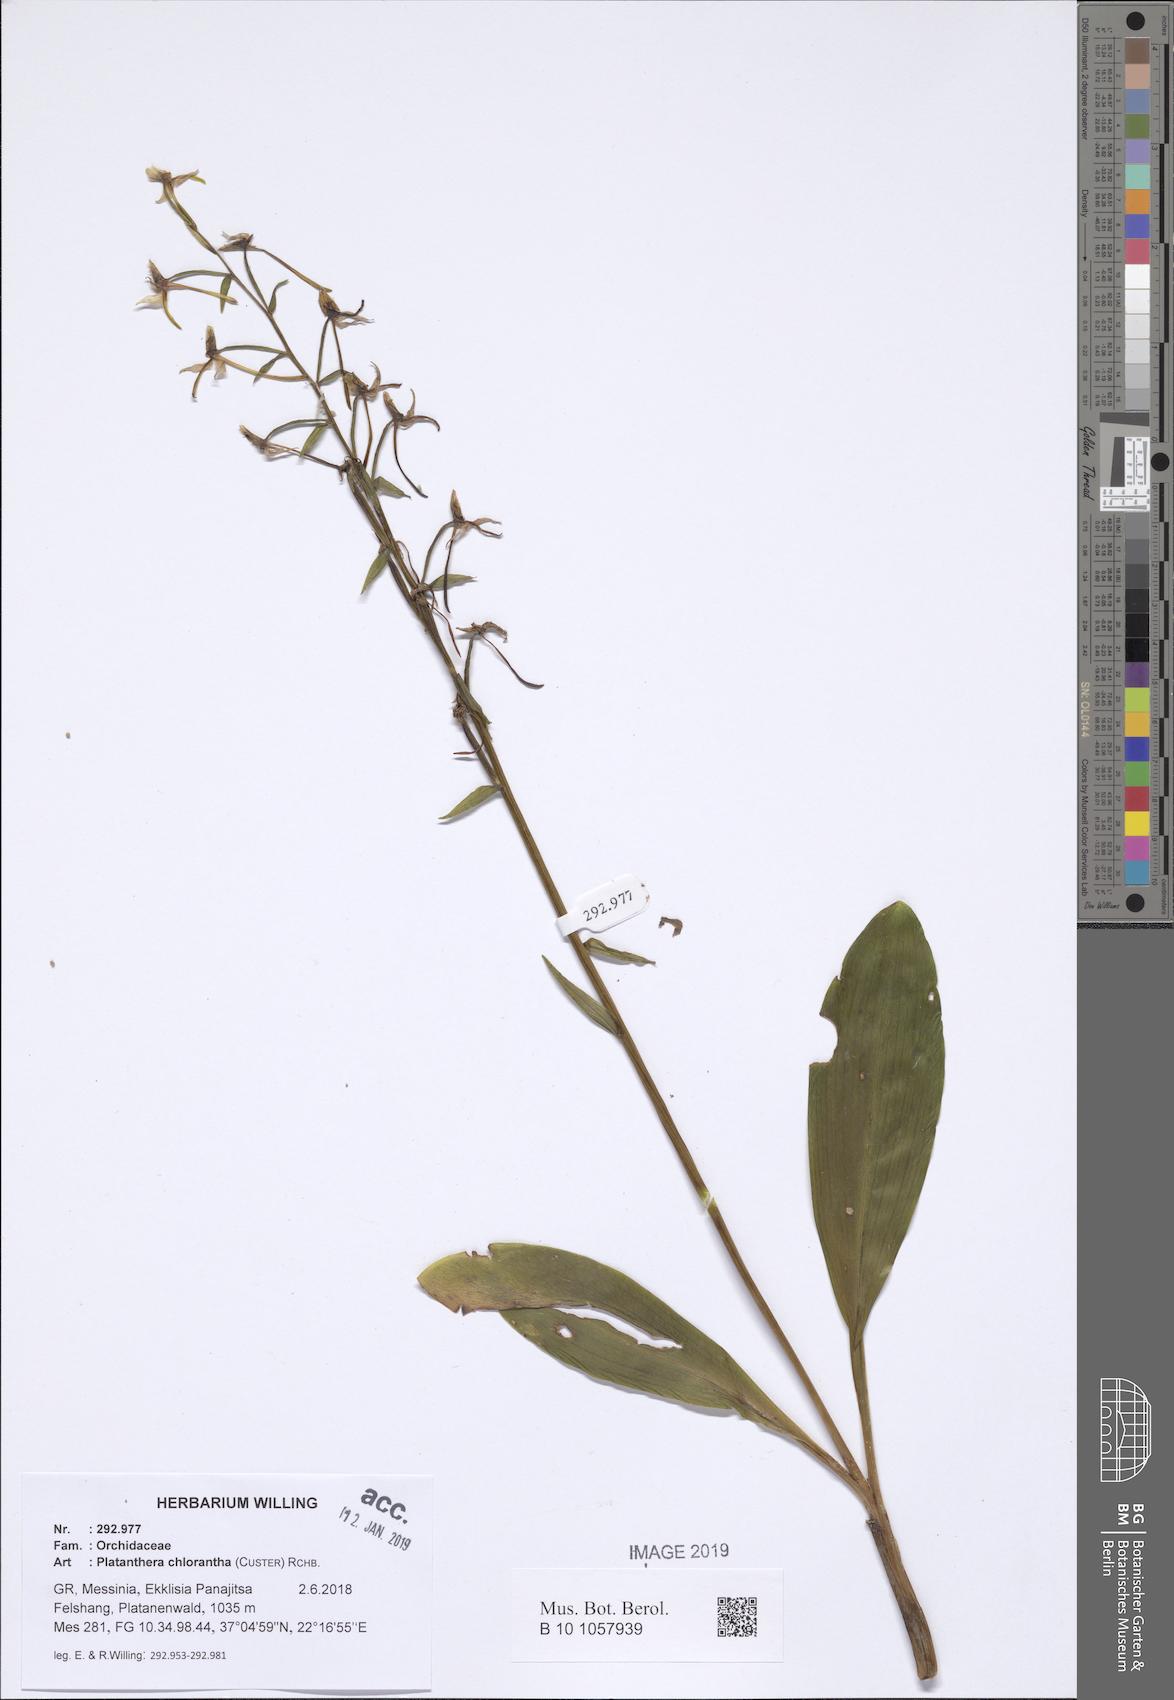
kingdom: Plantae
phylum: Tracheophyta
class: Liliopsida
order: Asparagales
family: Orchidaceae
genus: Platanthera
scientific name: Platanthera chlorantha
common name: Greater butterfly-orchid
